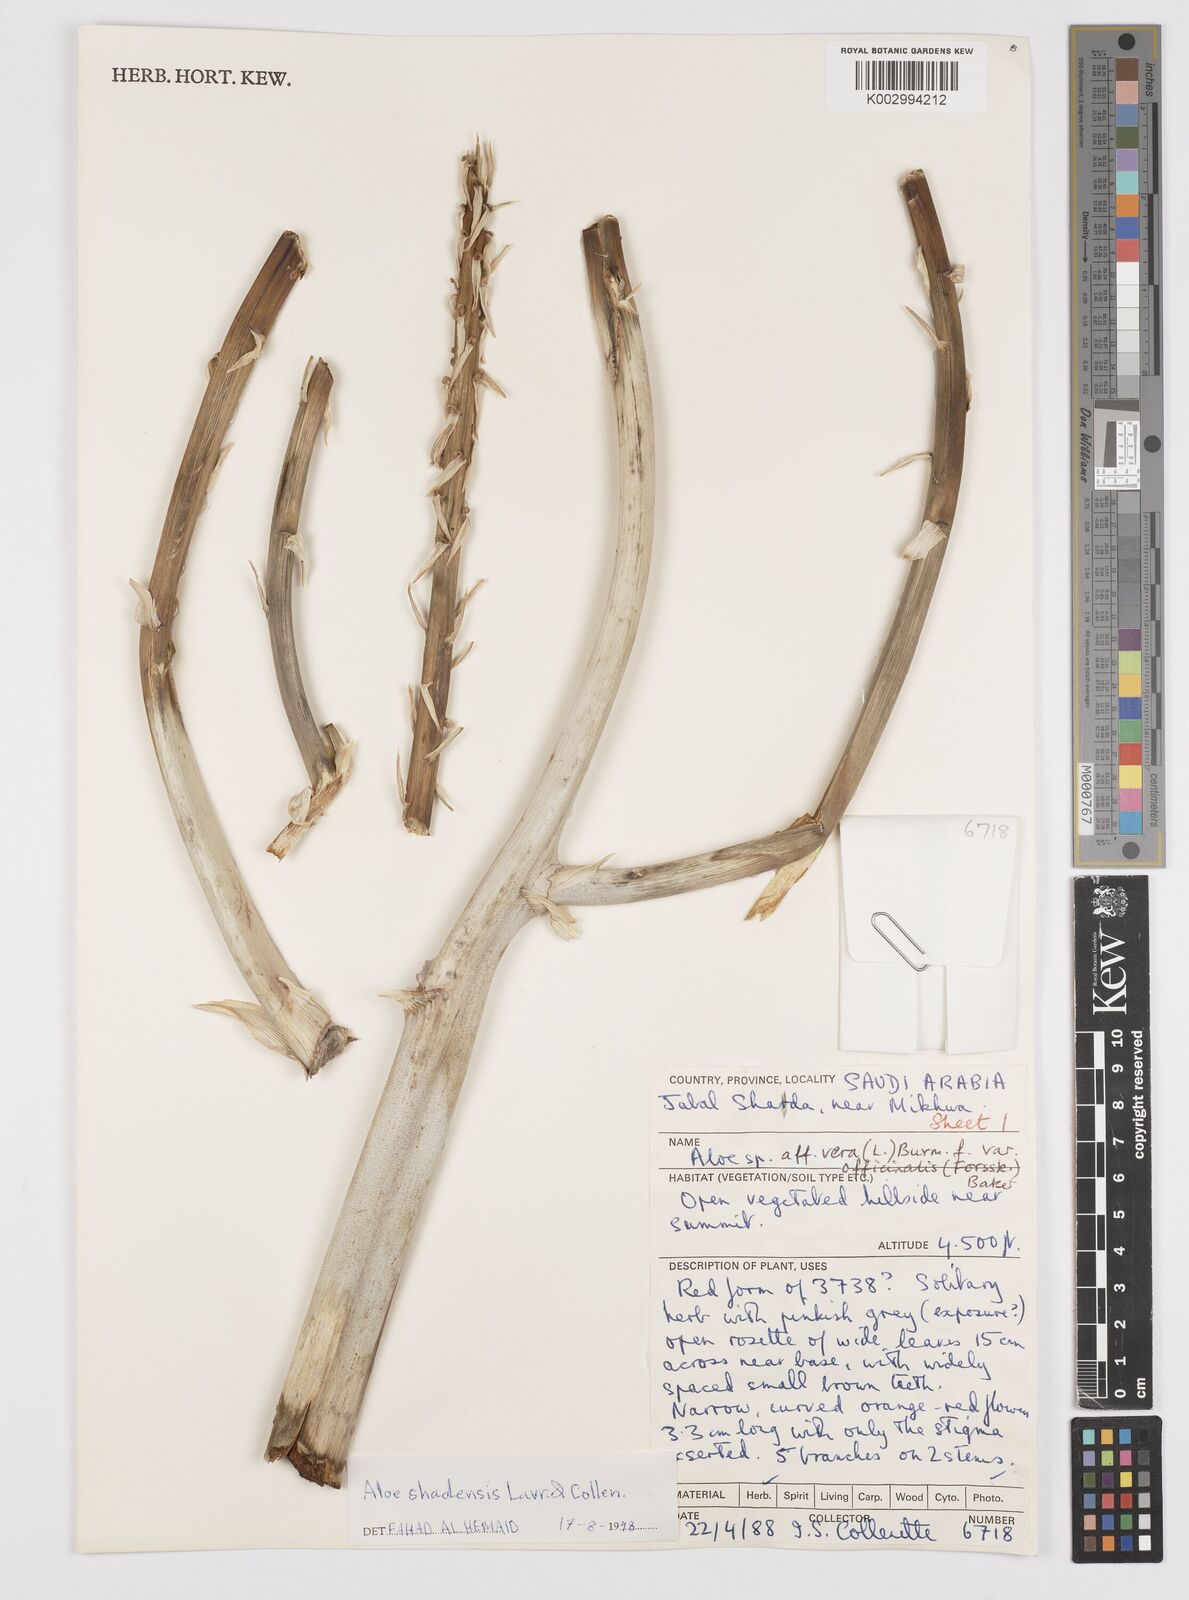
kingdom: Plantae
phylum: Tracheophyta
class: Liliopsida
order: Asparagales
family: Asphodelaceae
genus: Aloe
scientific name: Aloe shadensis
